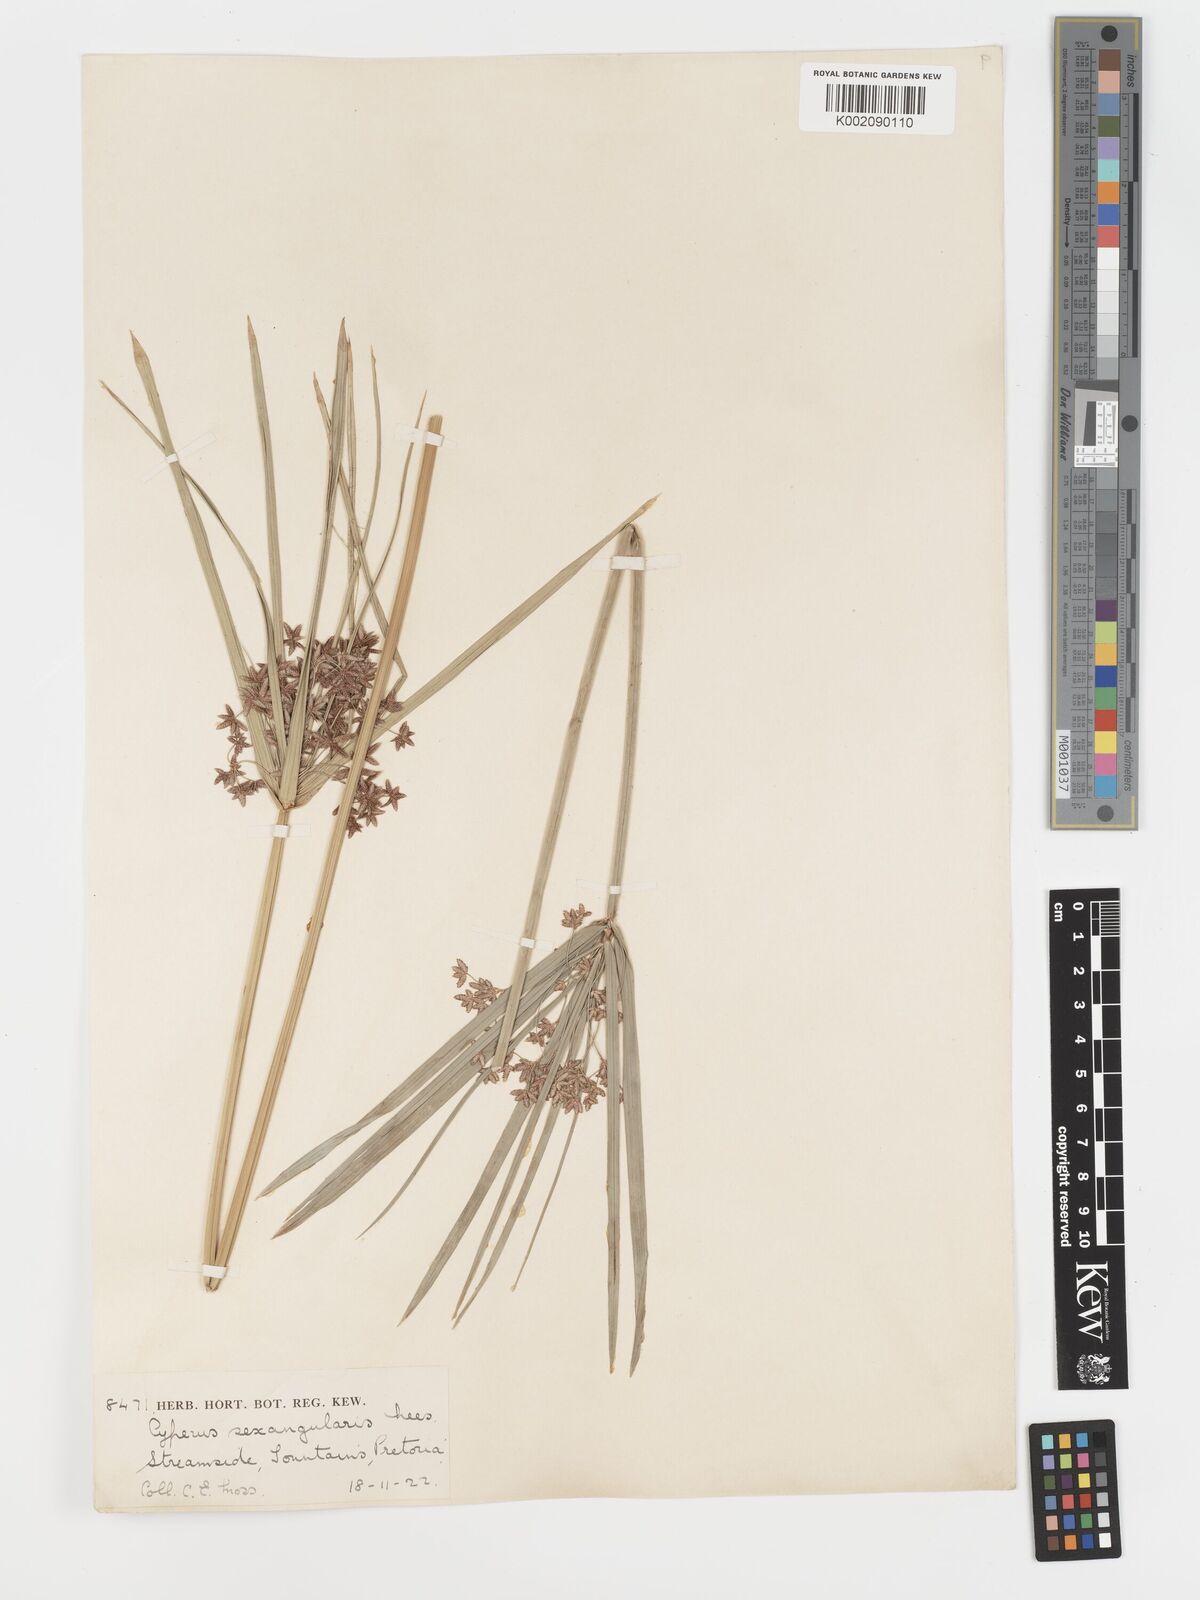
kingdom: Plantae
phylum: Tracheophyta
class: Liliopsida
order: Poales
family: Cyperaceae
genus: Cyperus
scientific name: Cyperus sexangularis
